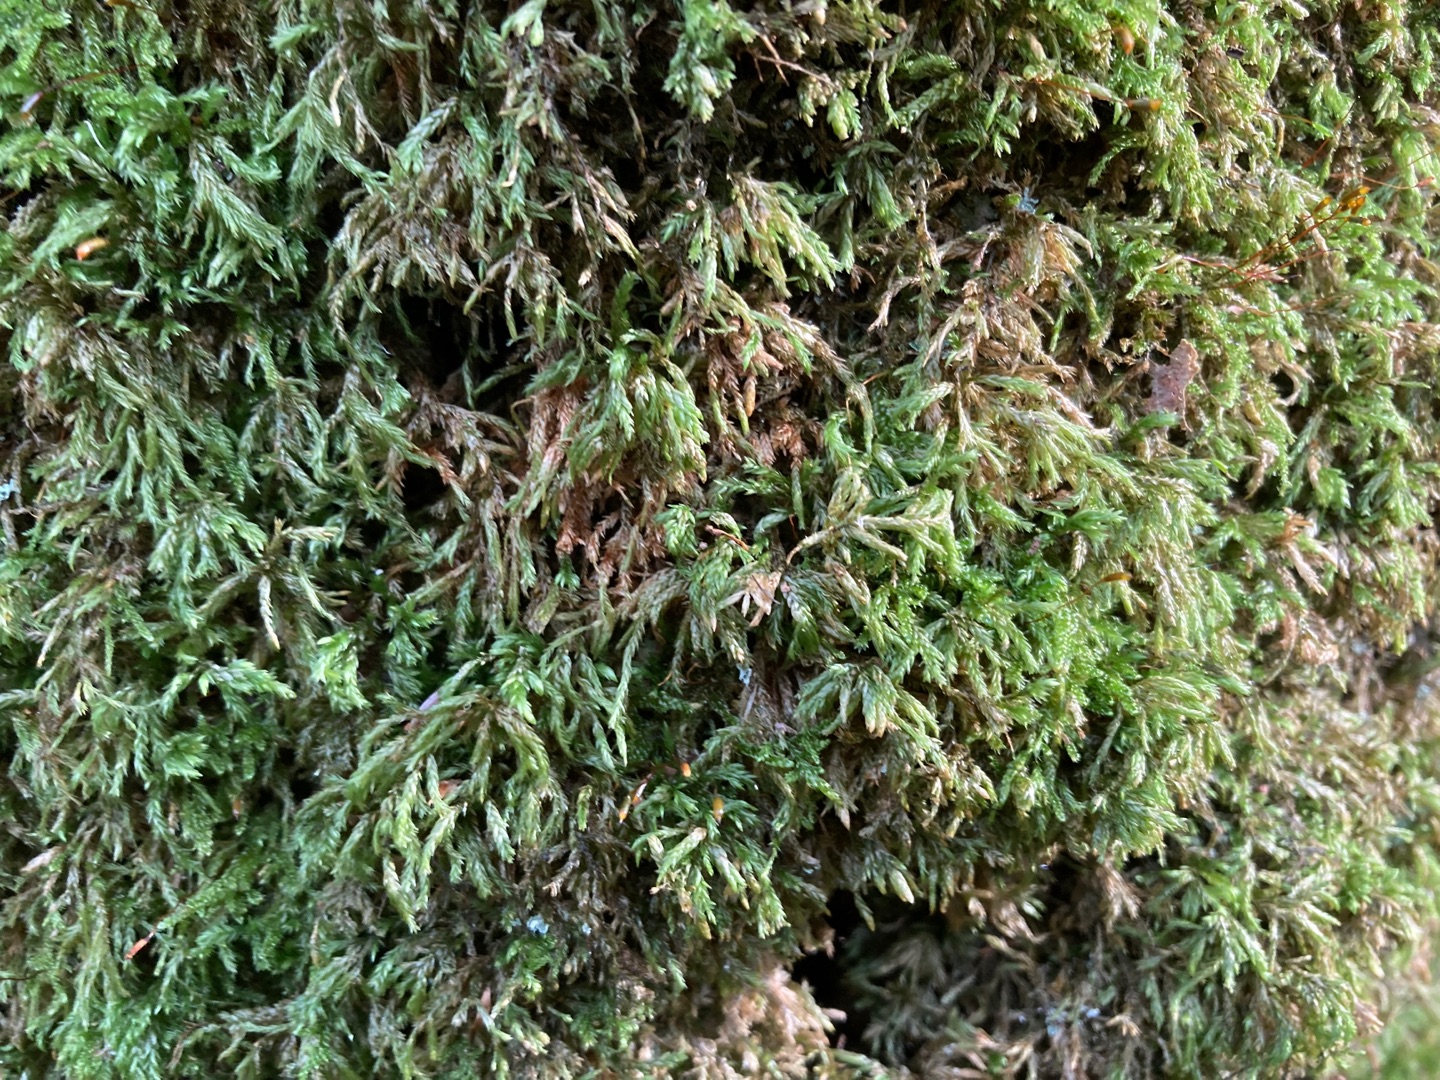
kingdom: Plantae
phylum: Bryophyta
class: Bryopsida
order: Hypnales
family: Lembophyllaceae
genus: Isothecium
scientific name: Isothecium alopecuroides
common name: Stor stammemos
